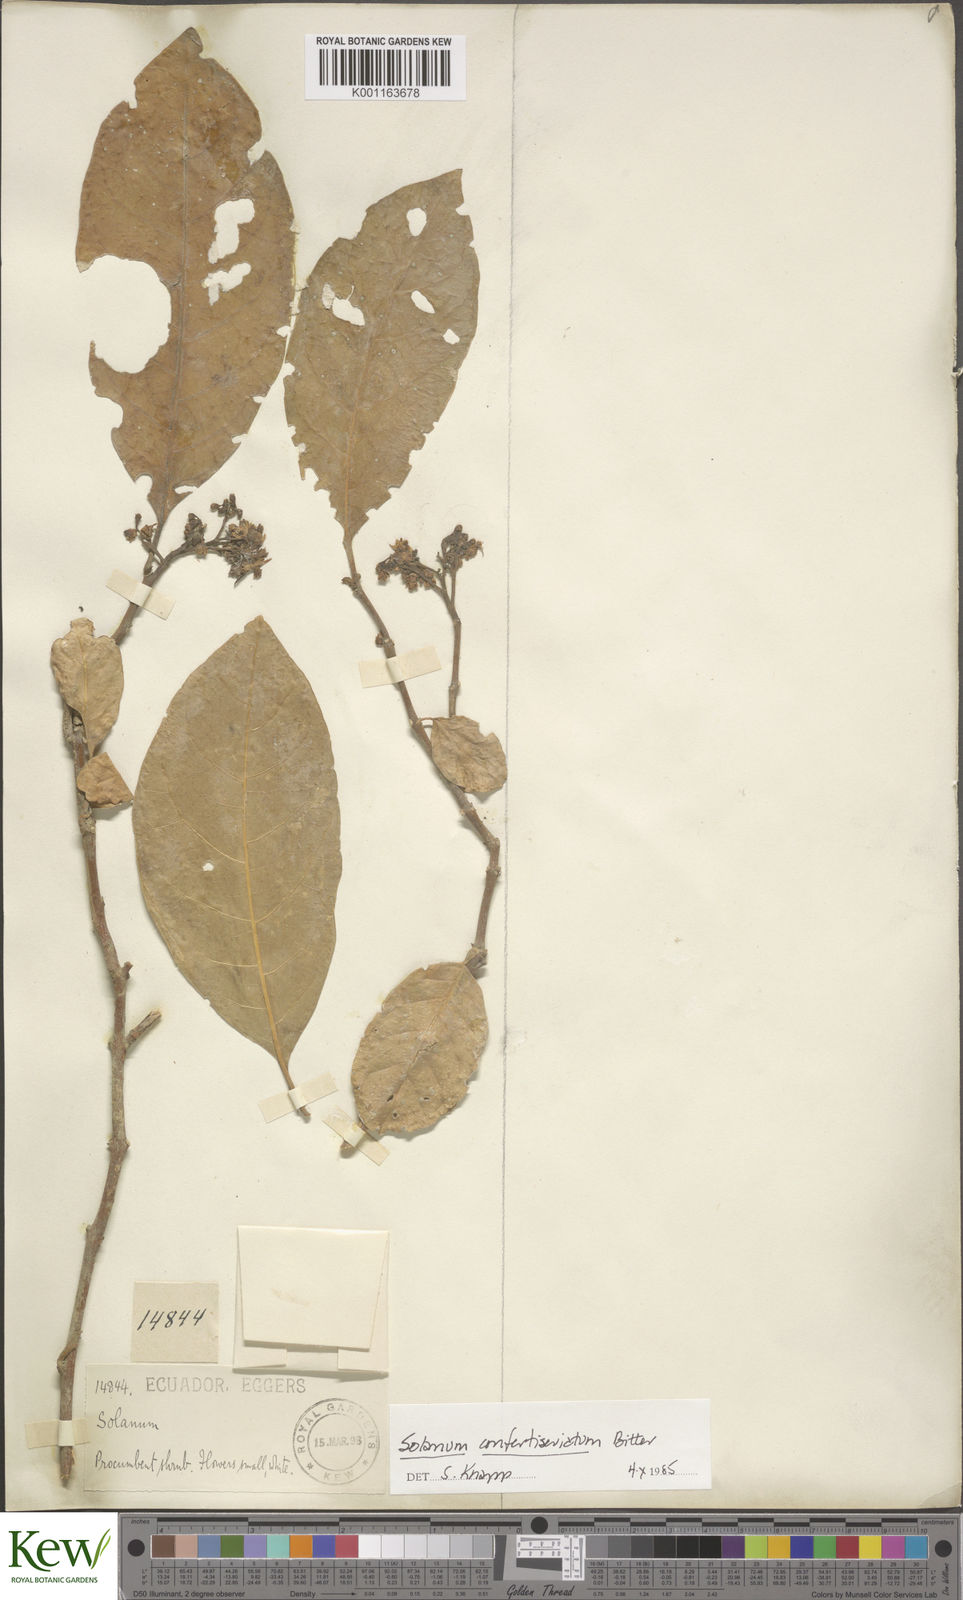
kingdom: Plantae
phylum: Tracheophyta
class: Magnoliopsida
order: Solanales
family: Solanaceae
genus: Solanum
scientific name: Solanum confertiseriatum
